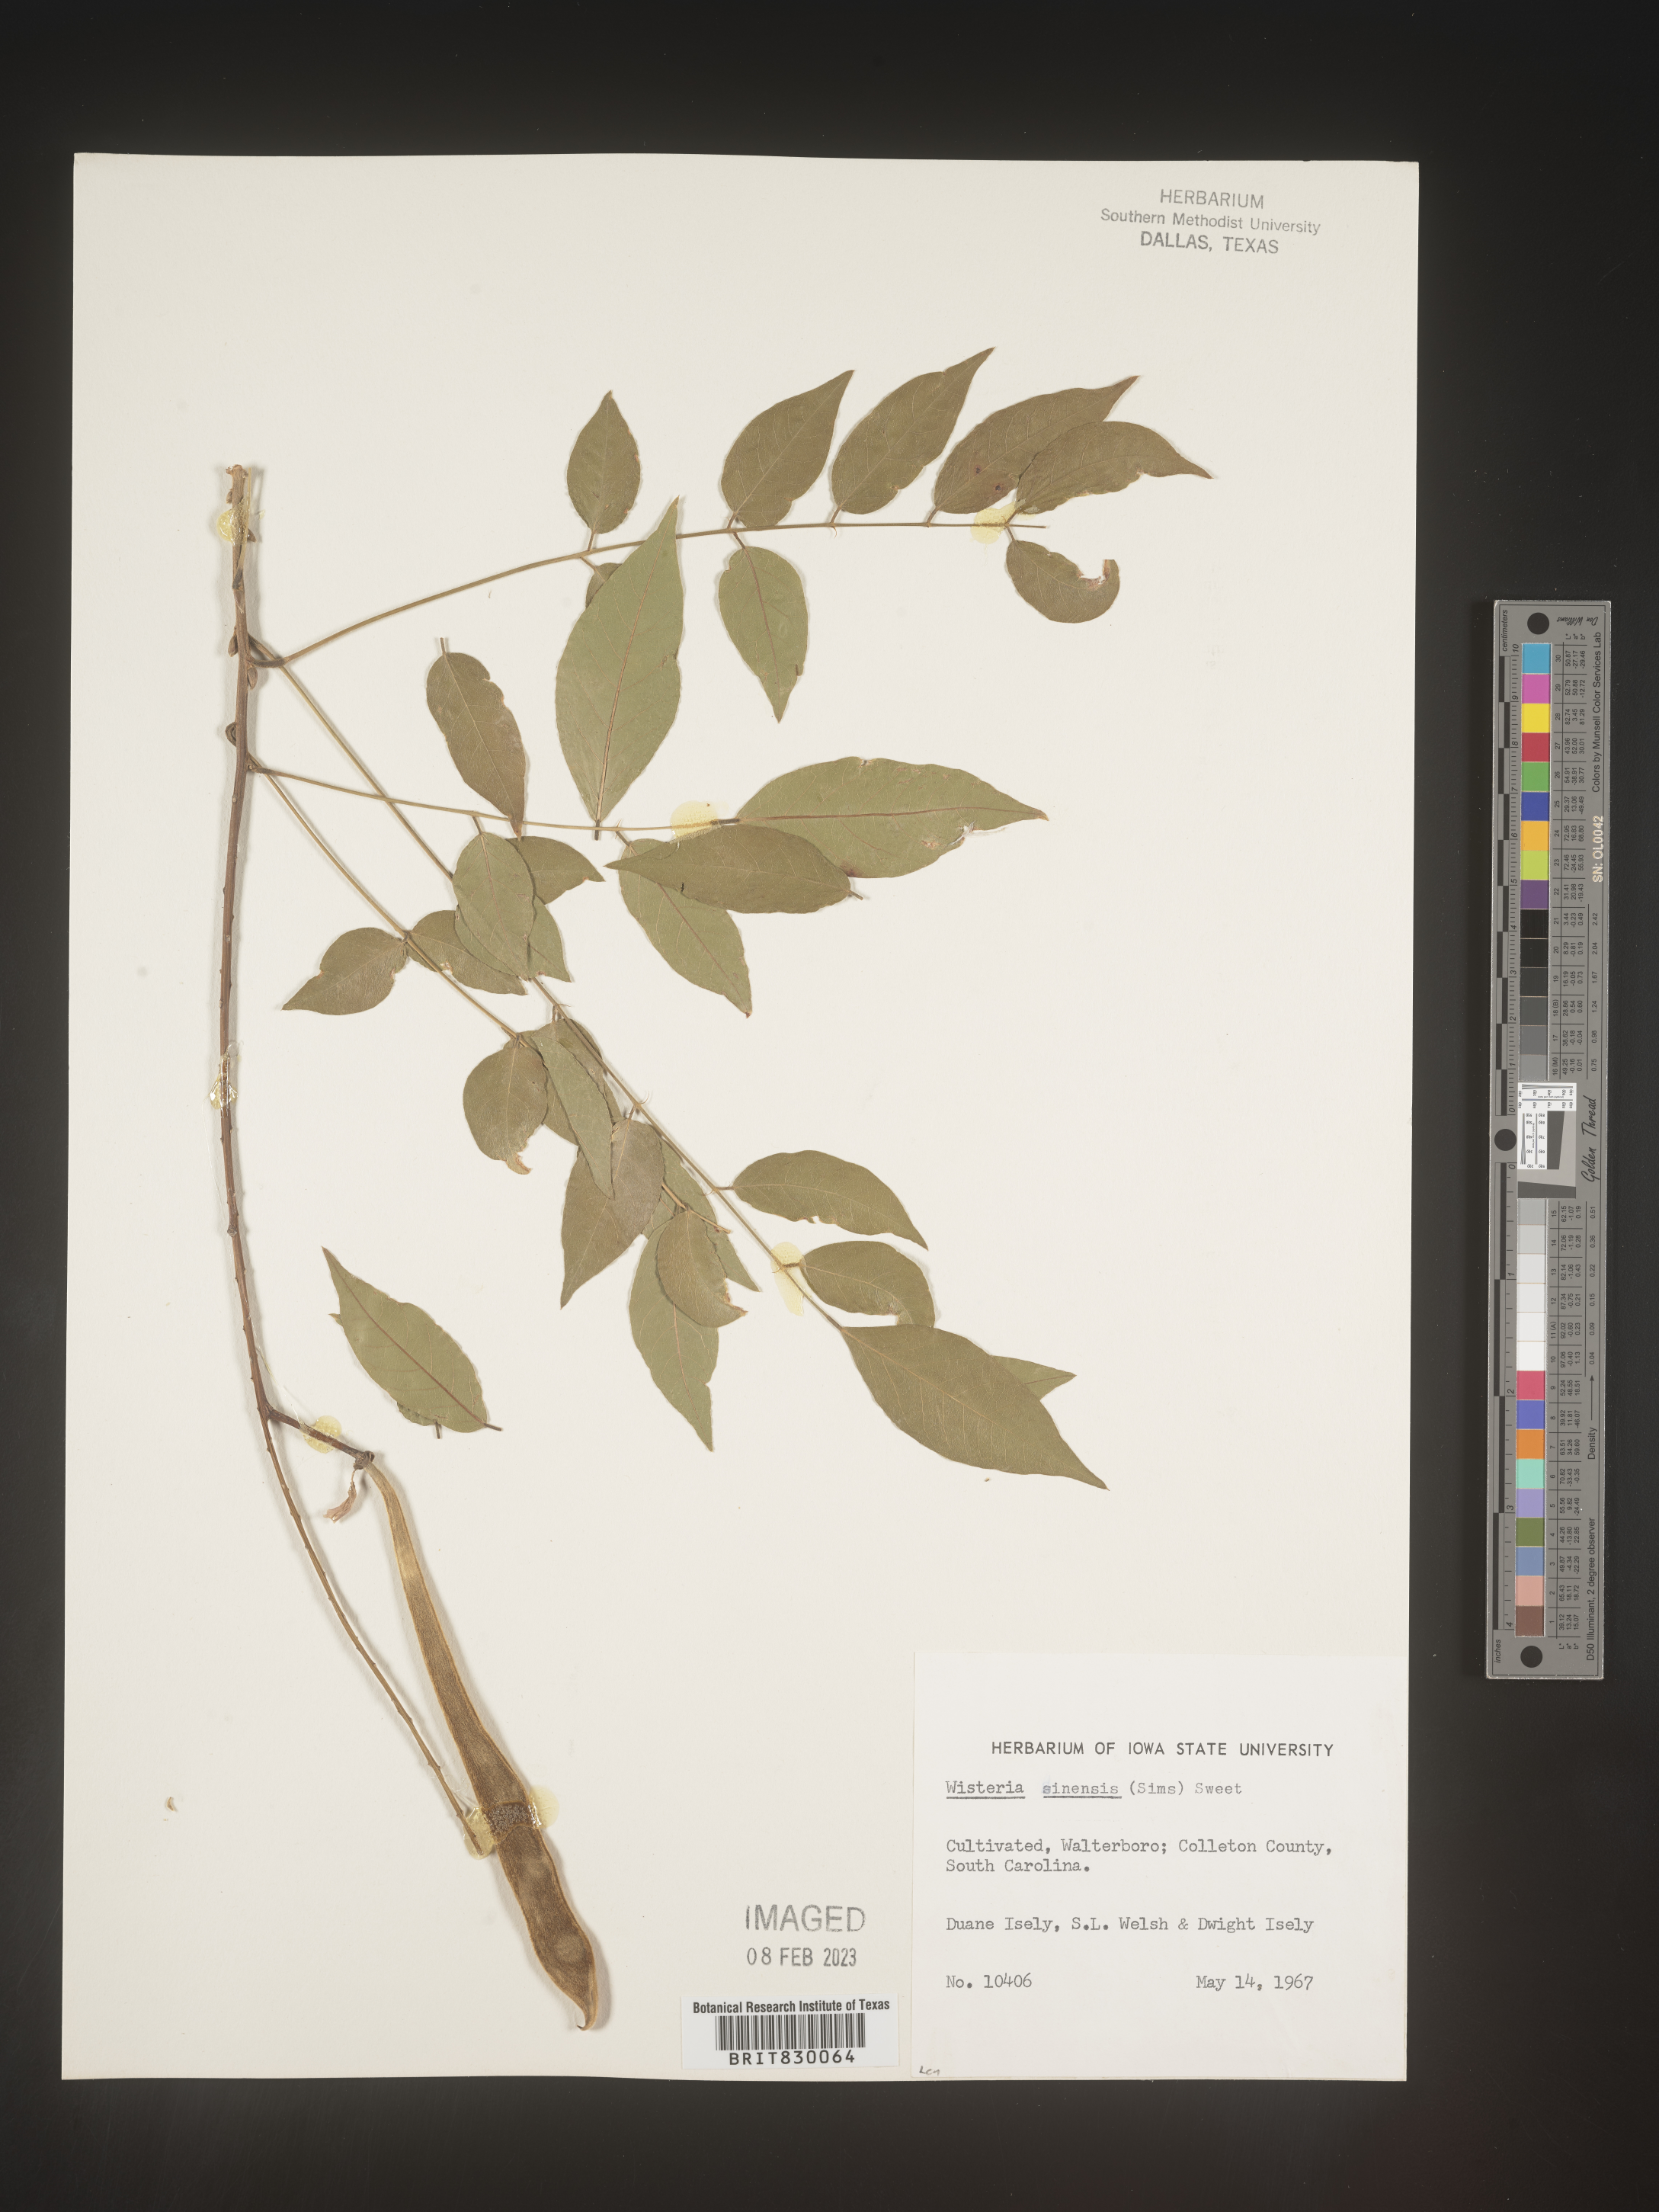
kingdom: Plantae
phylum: Tracheophyta
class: Magnoliopsida
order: Fabales
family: Fabaceae
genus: Wisteria
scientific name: Wisteria
